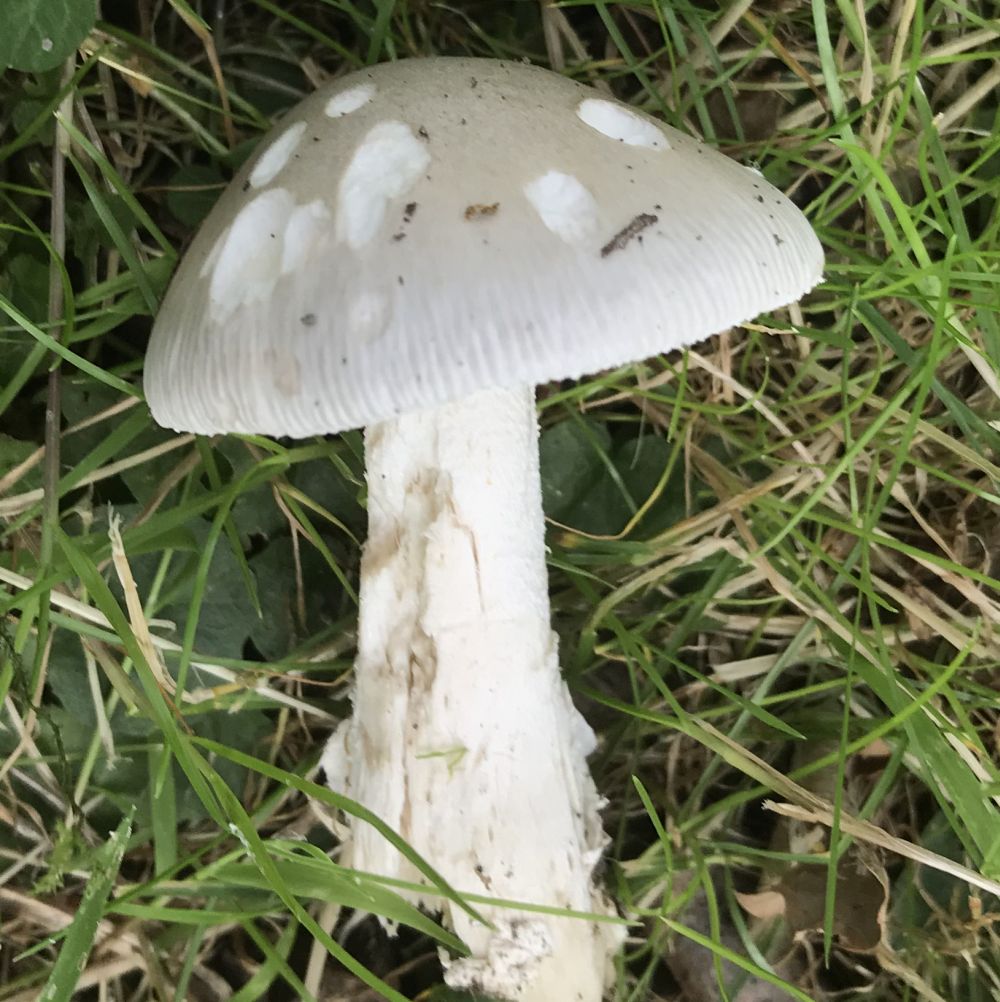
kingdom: Fungi
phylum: Basidiomycota
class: Agaricomycetes
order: Agaricales
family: Amanitaceae
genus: Amanita
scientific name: Amanita
